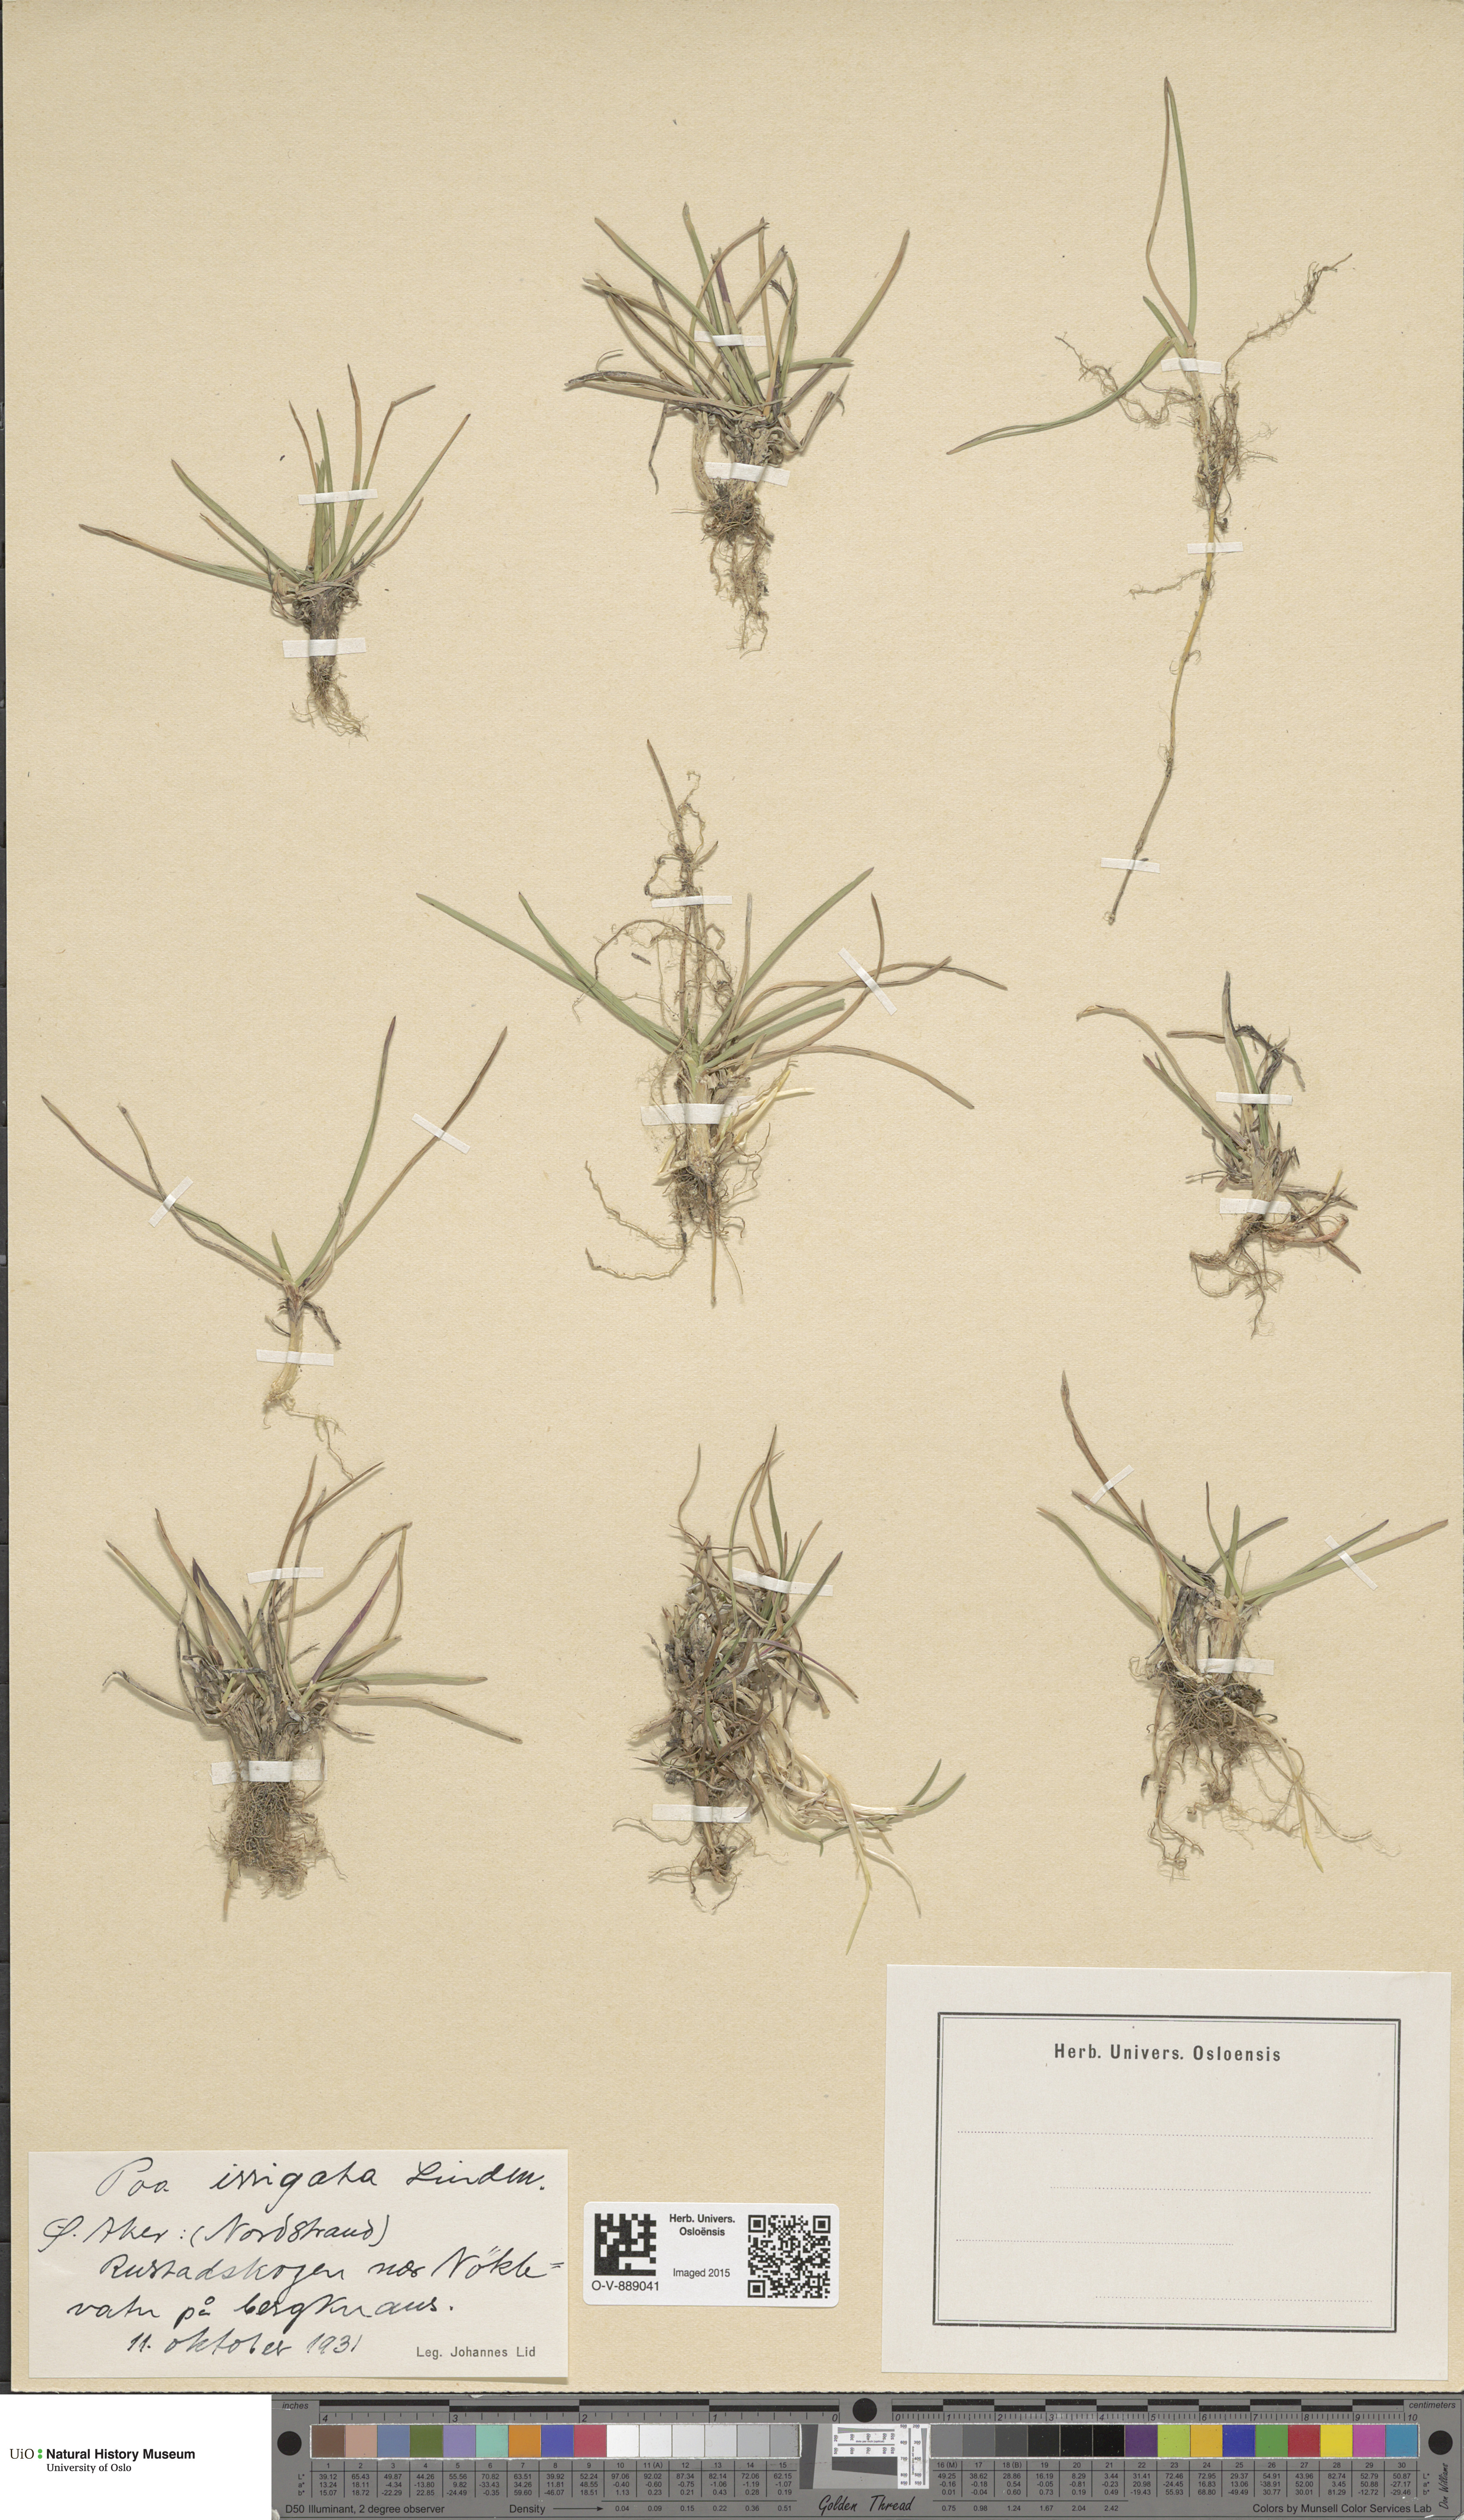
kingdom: Plantae
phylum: Tracheophyta
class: Liliopsida
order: Poales
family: Poaceae
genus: Poa
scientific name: Poa humilis
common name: Spreading meadow-grass
